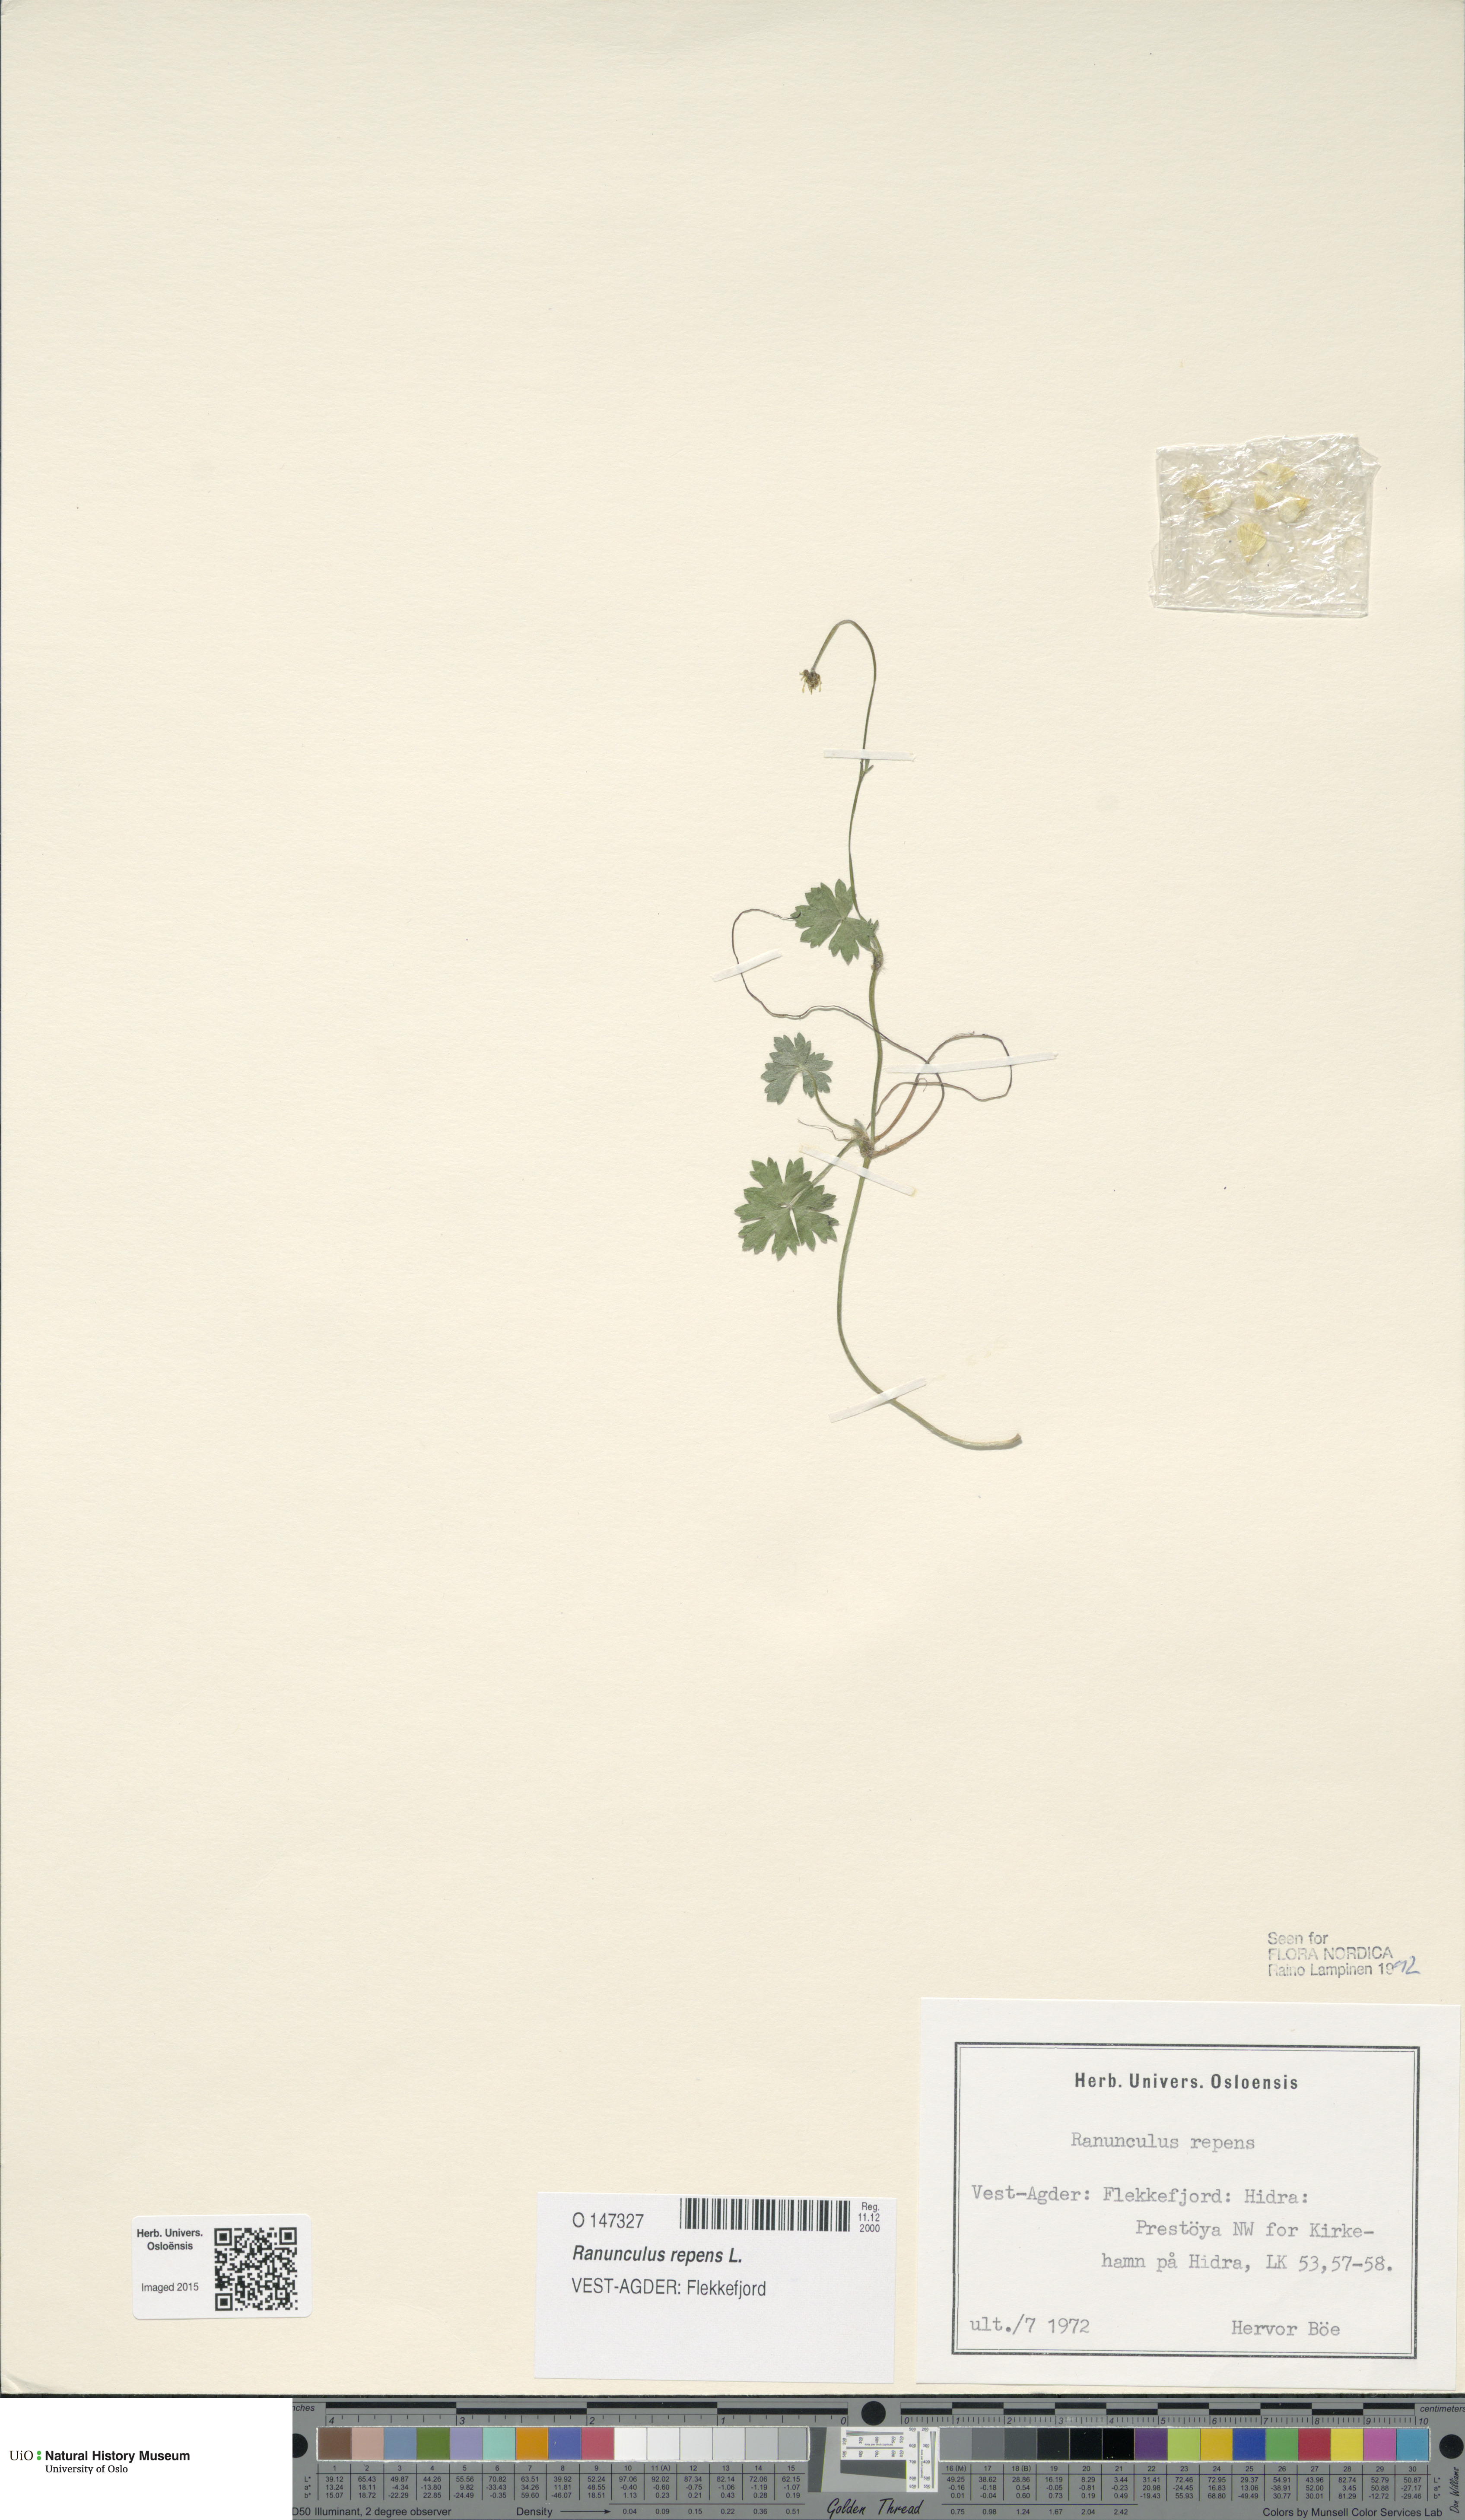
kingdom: Plantae
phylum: Tracheophyta
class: Magnoliopsida
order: Ranunculales
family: Ranunculaceae
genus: Ranunculus
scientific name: Ranunculus repens
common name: Creeping buttercup
